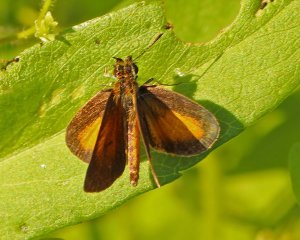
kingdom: Animalia
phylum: Arthropoda
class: Insecta
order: Lepidoptera
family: Hesperiidae
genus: Ancyloxypha
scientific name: Ancyloxypha numitor
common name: Least Skipper
